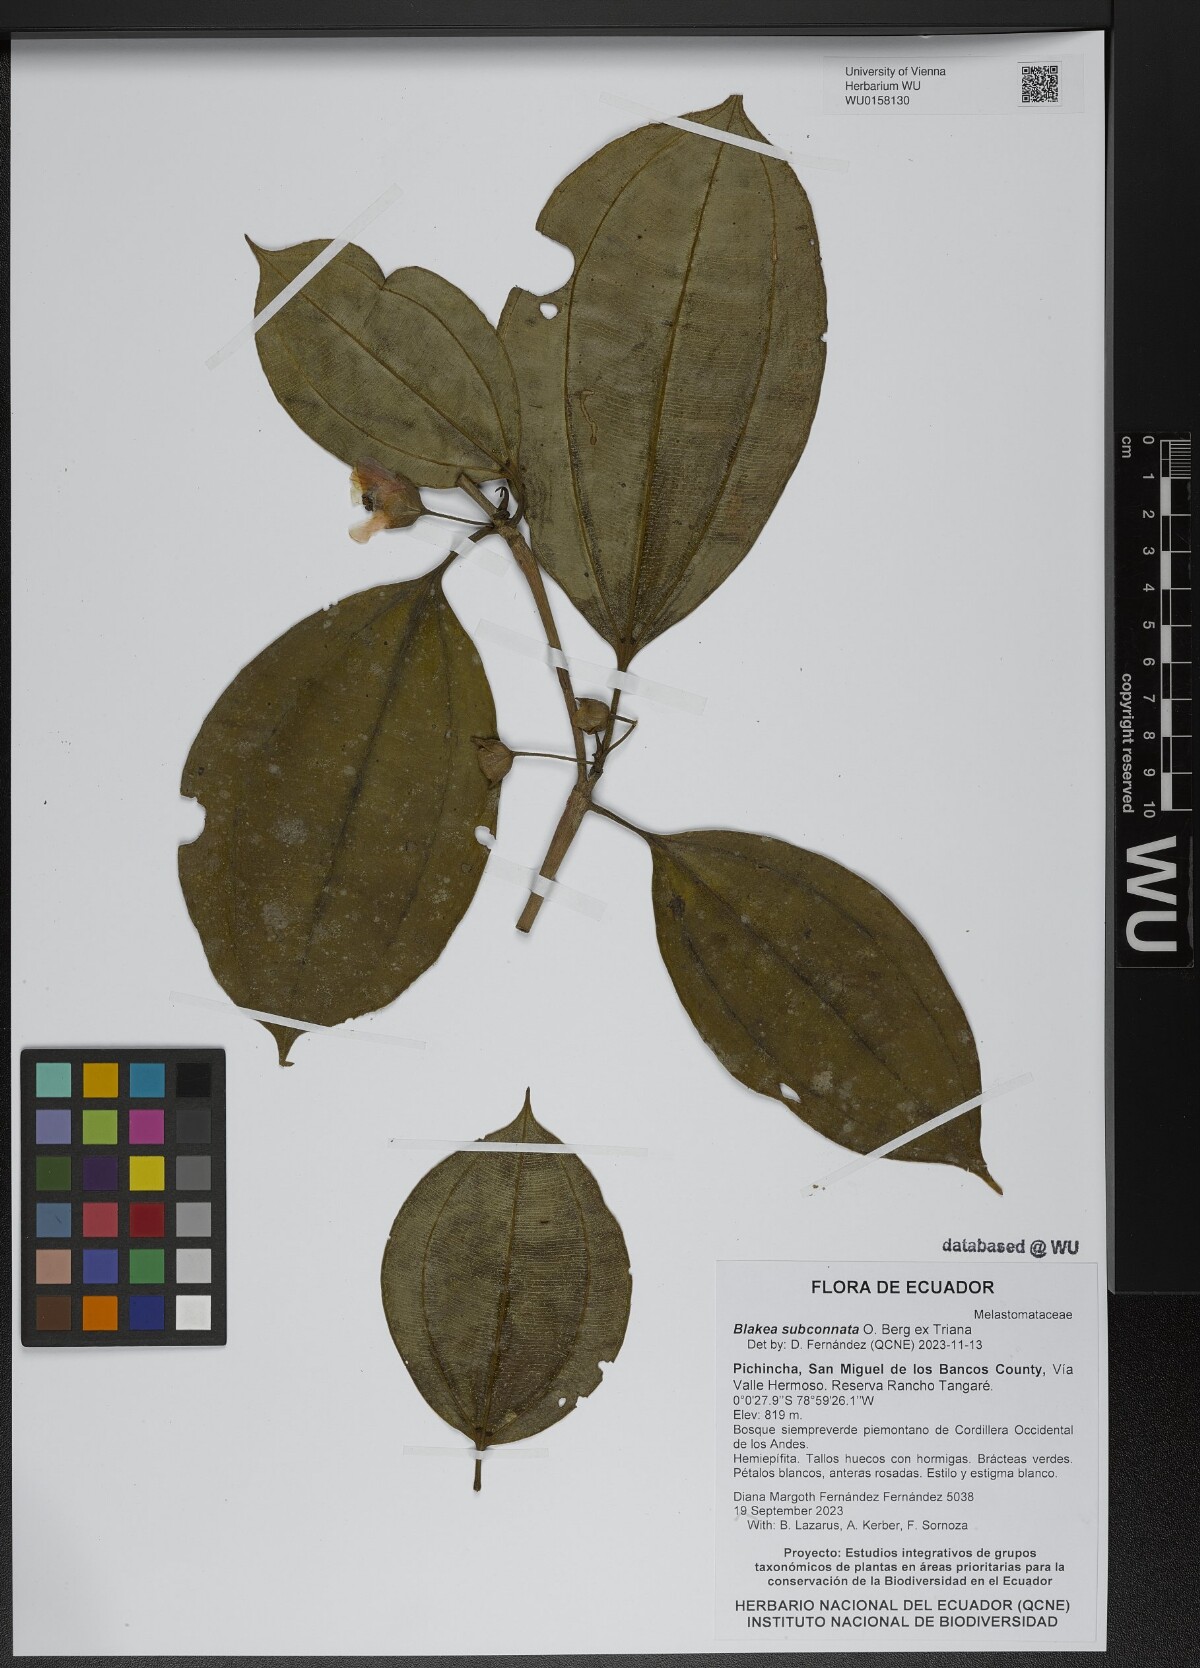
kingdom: Plantae
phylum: Tracheophyta
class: Magnoliopsida
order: Myrtales
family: Melastomataceae
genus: Blakea
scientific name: Blakea subconnata
